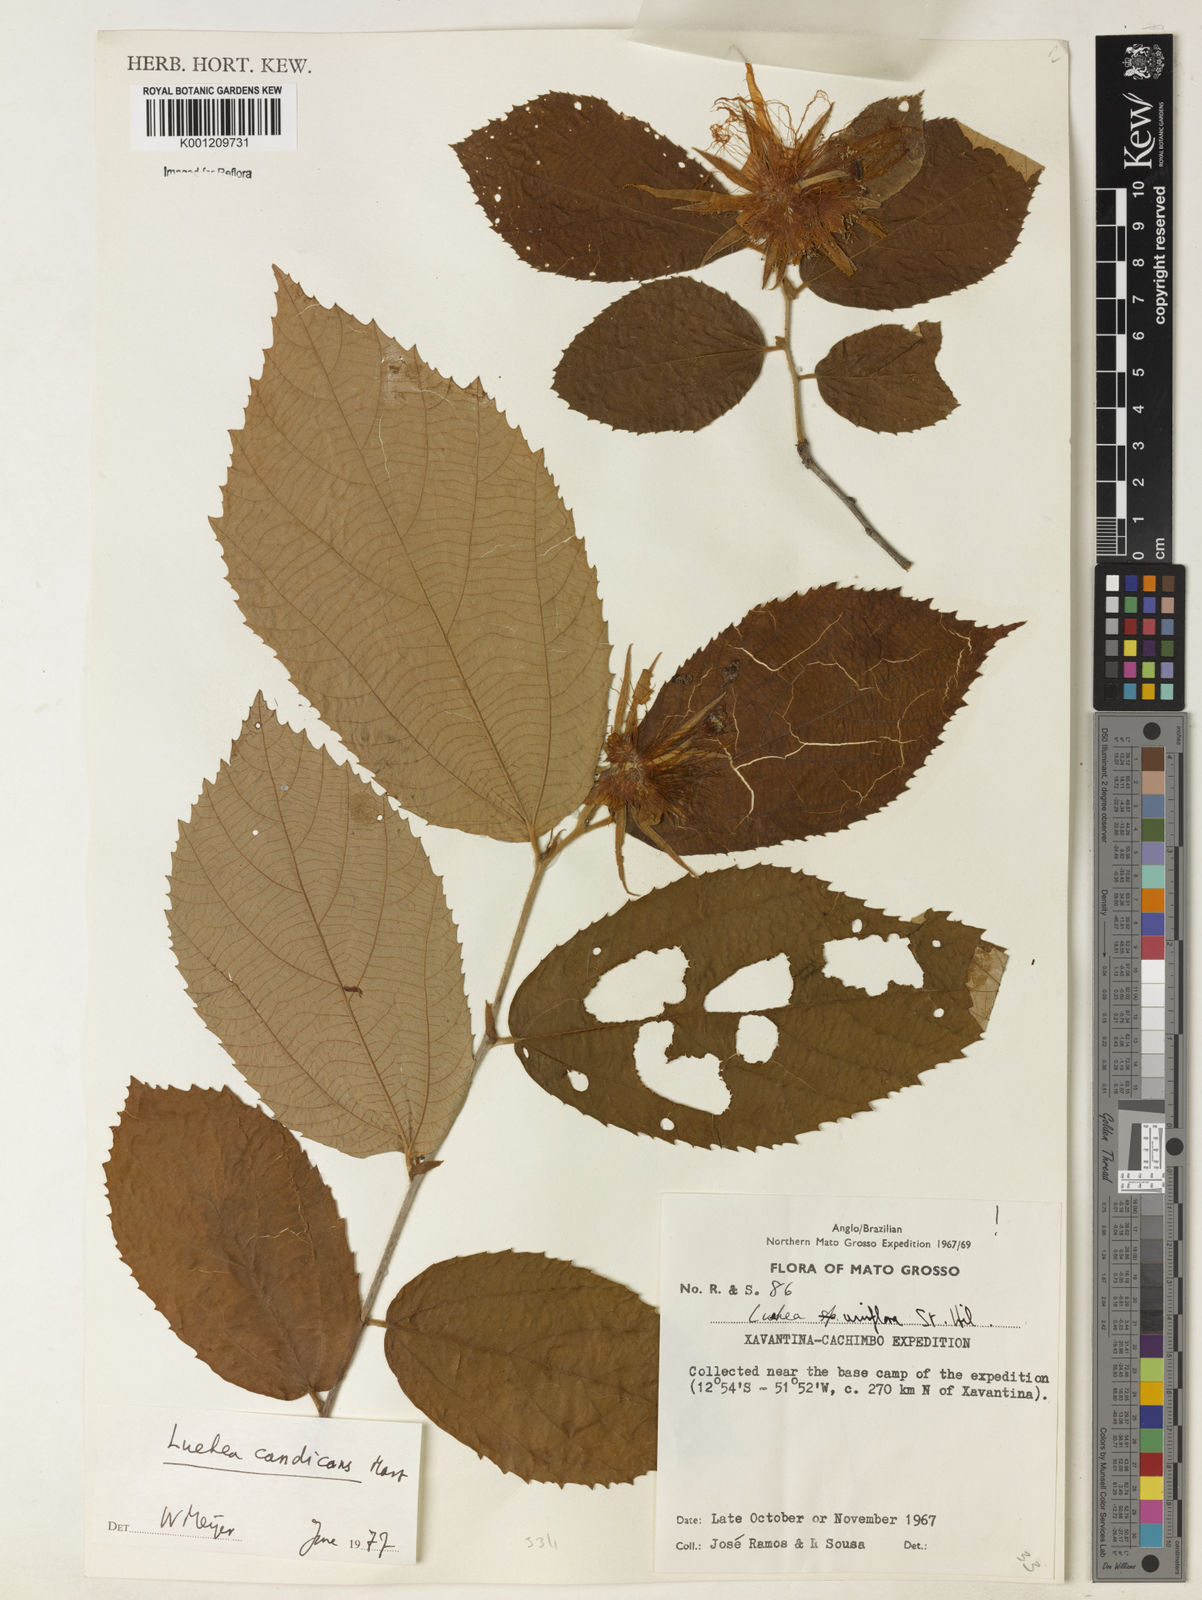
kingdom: Plantae
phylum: Tracheophyta
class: Magnoliopsida
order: Malvales
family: Malvaceae
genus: Luehea
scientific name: Luehea candicans
